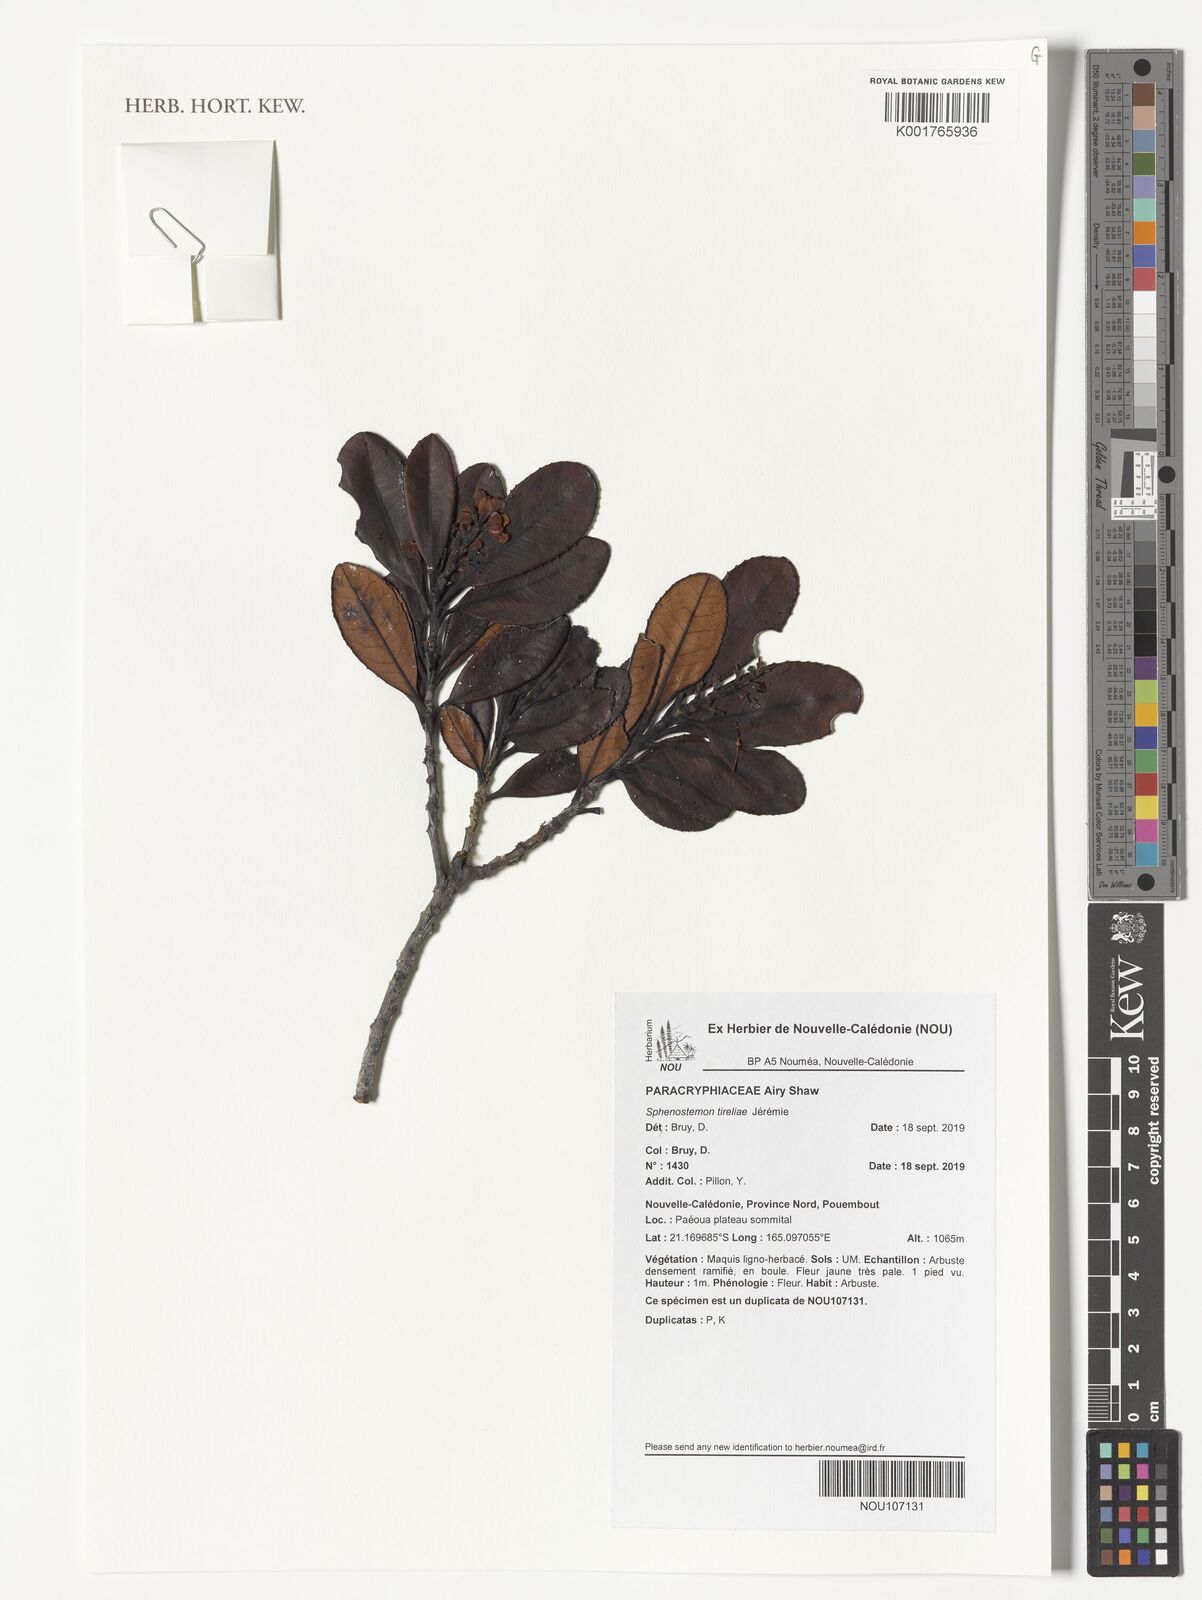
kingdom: Plantae
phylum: Tracheophyta
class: Magnoliopsida
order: Paracryphiales
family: Paracryphiaceae
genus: Sphenostemon
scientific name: Sphenostemon tireliae
